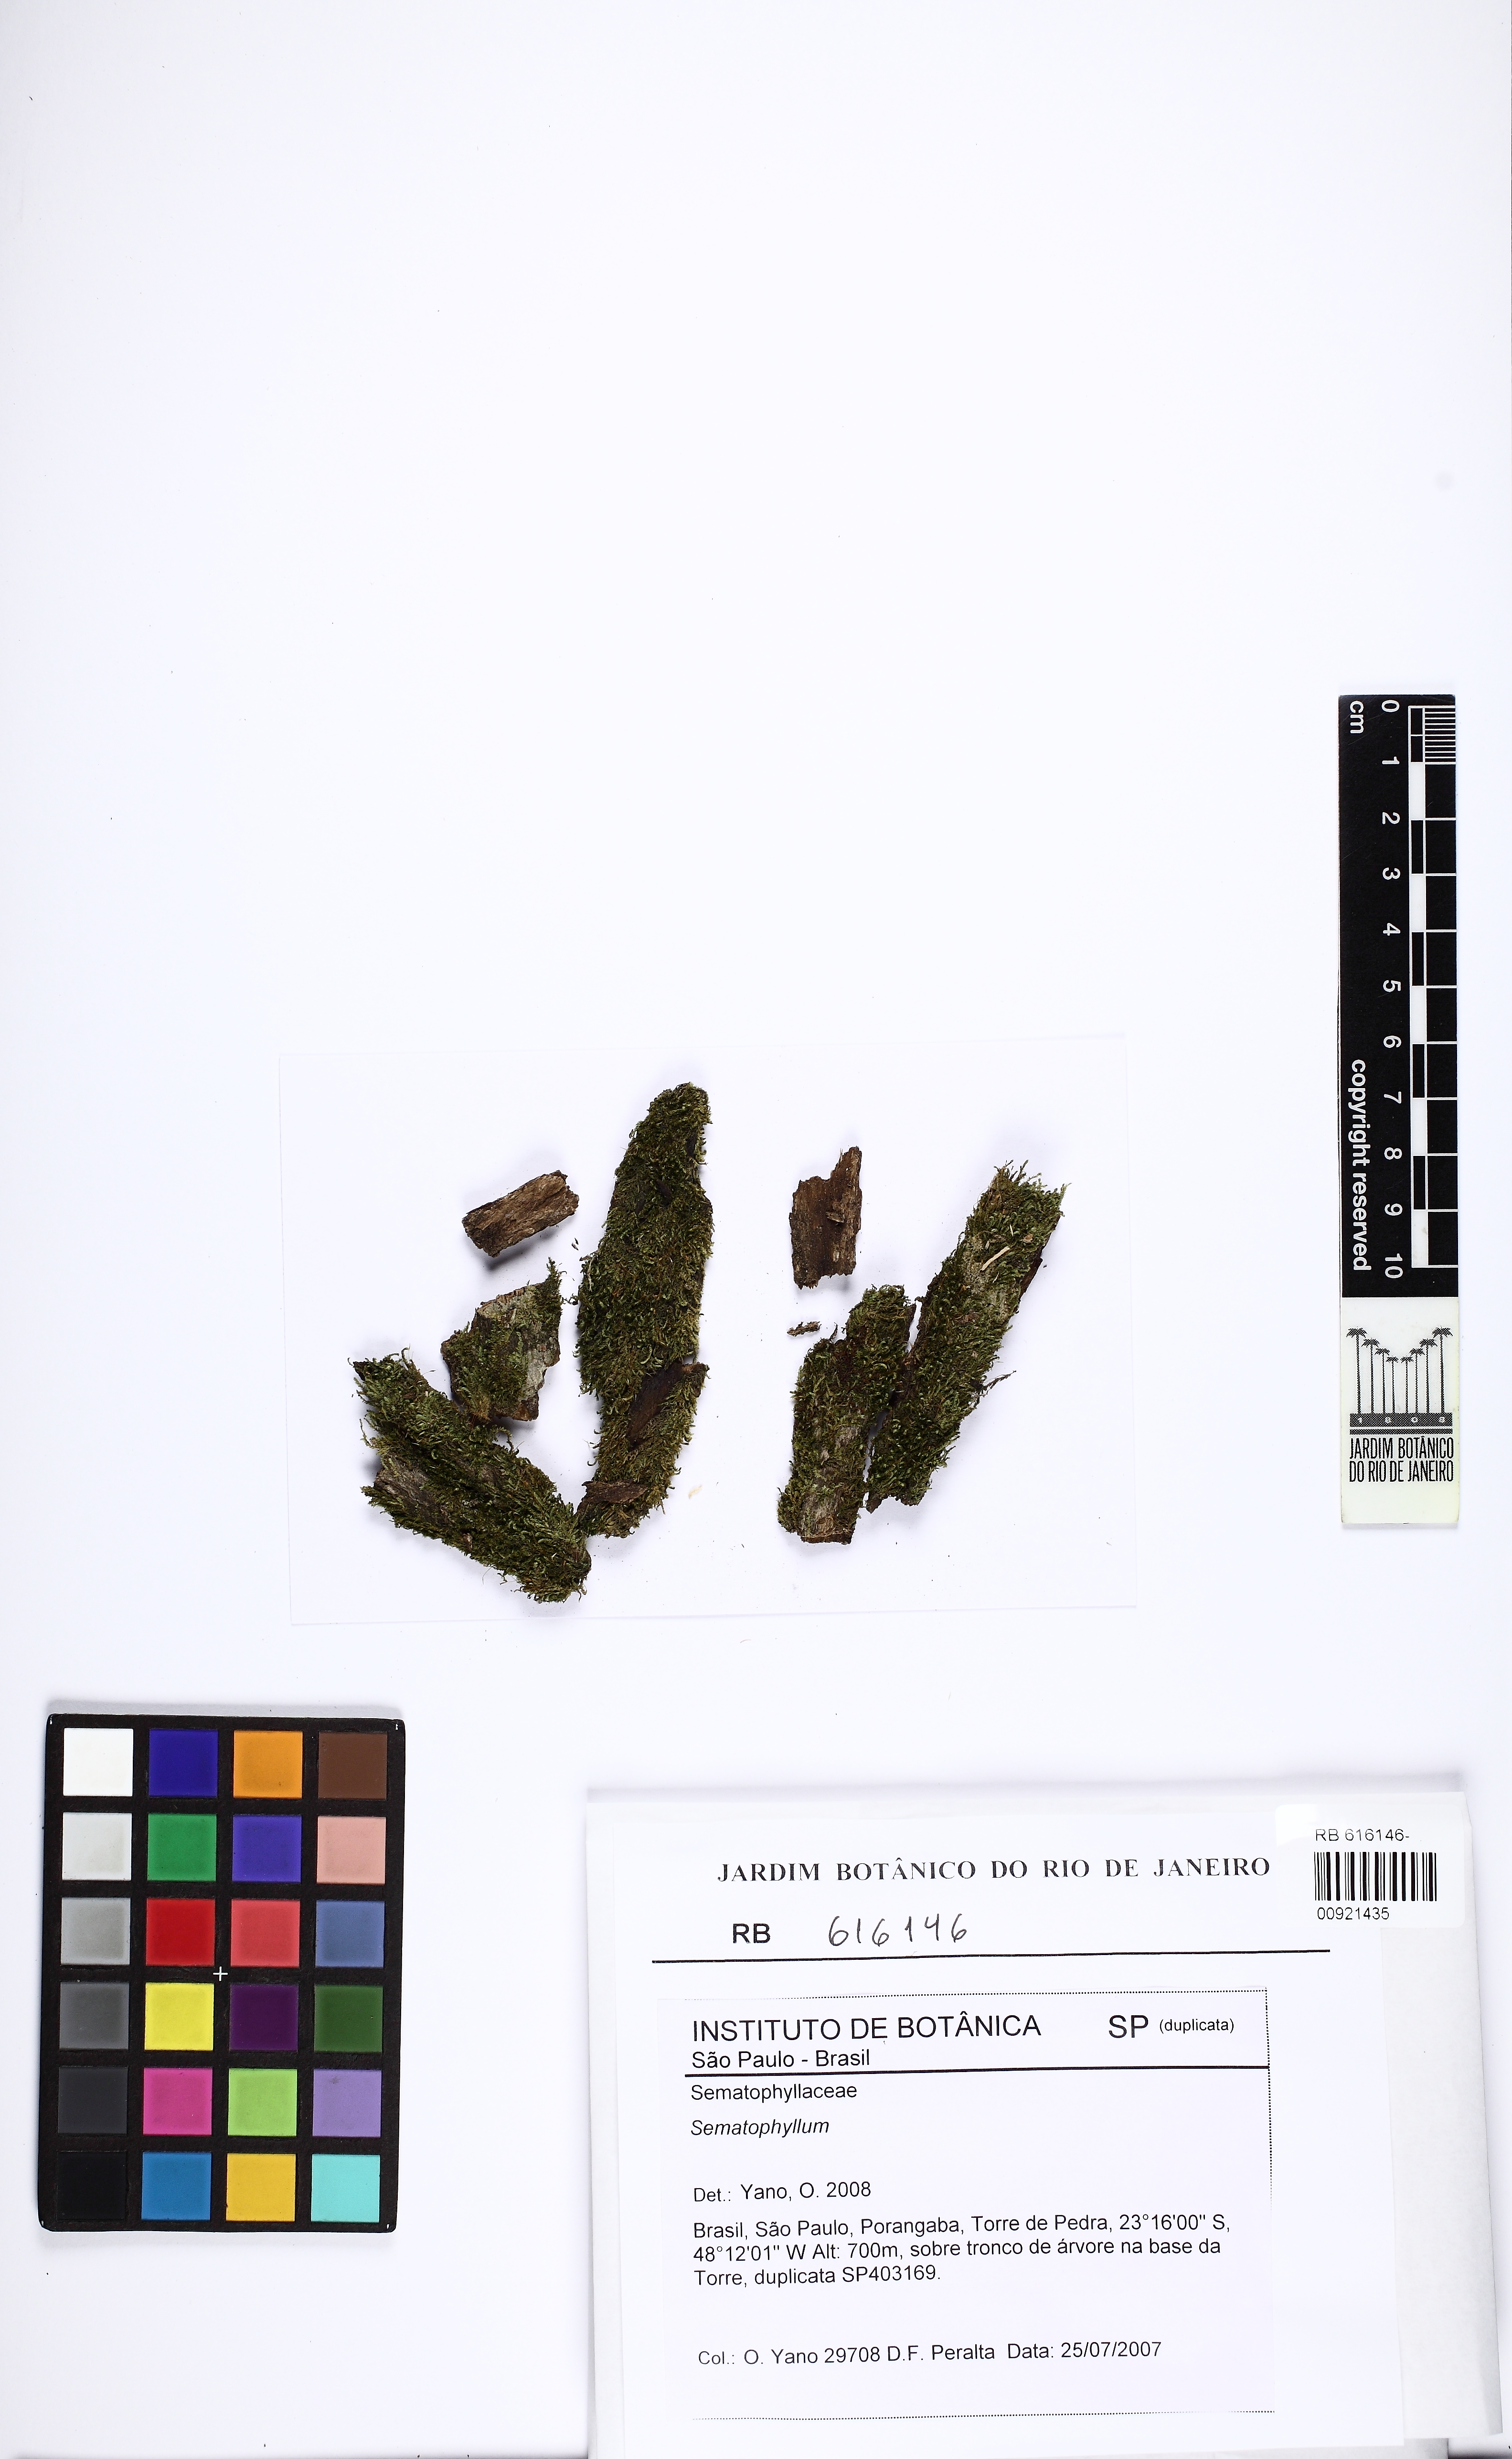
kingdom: Plantae
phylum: Bryophyta
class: Bryopsida
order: Hypnales
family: Sematophyllaceae
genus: Sematophyllum
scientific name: Sematophyllum
